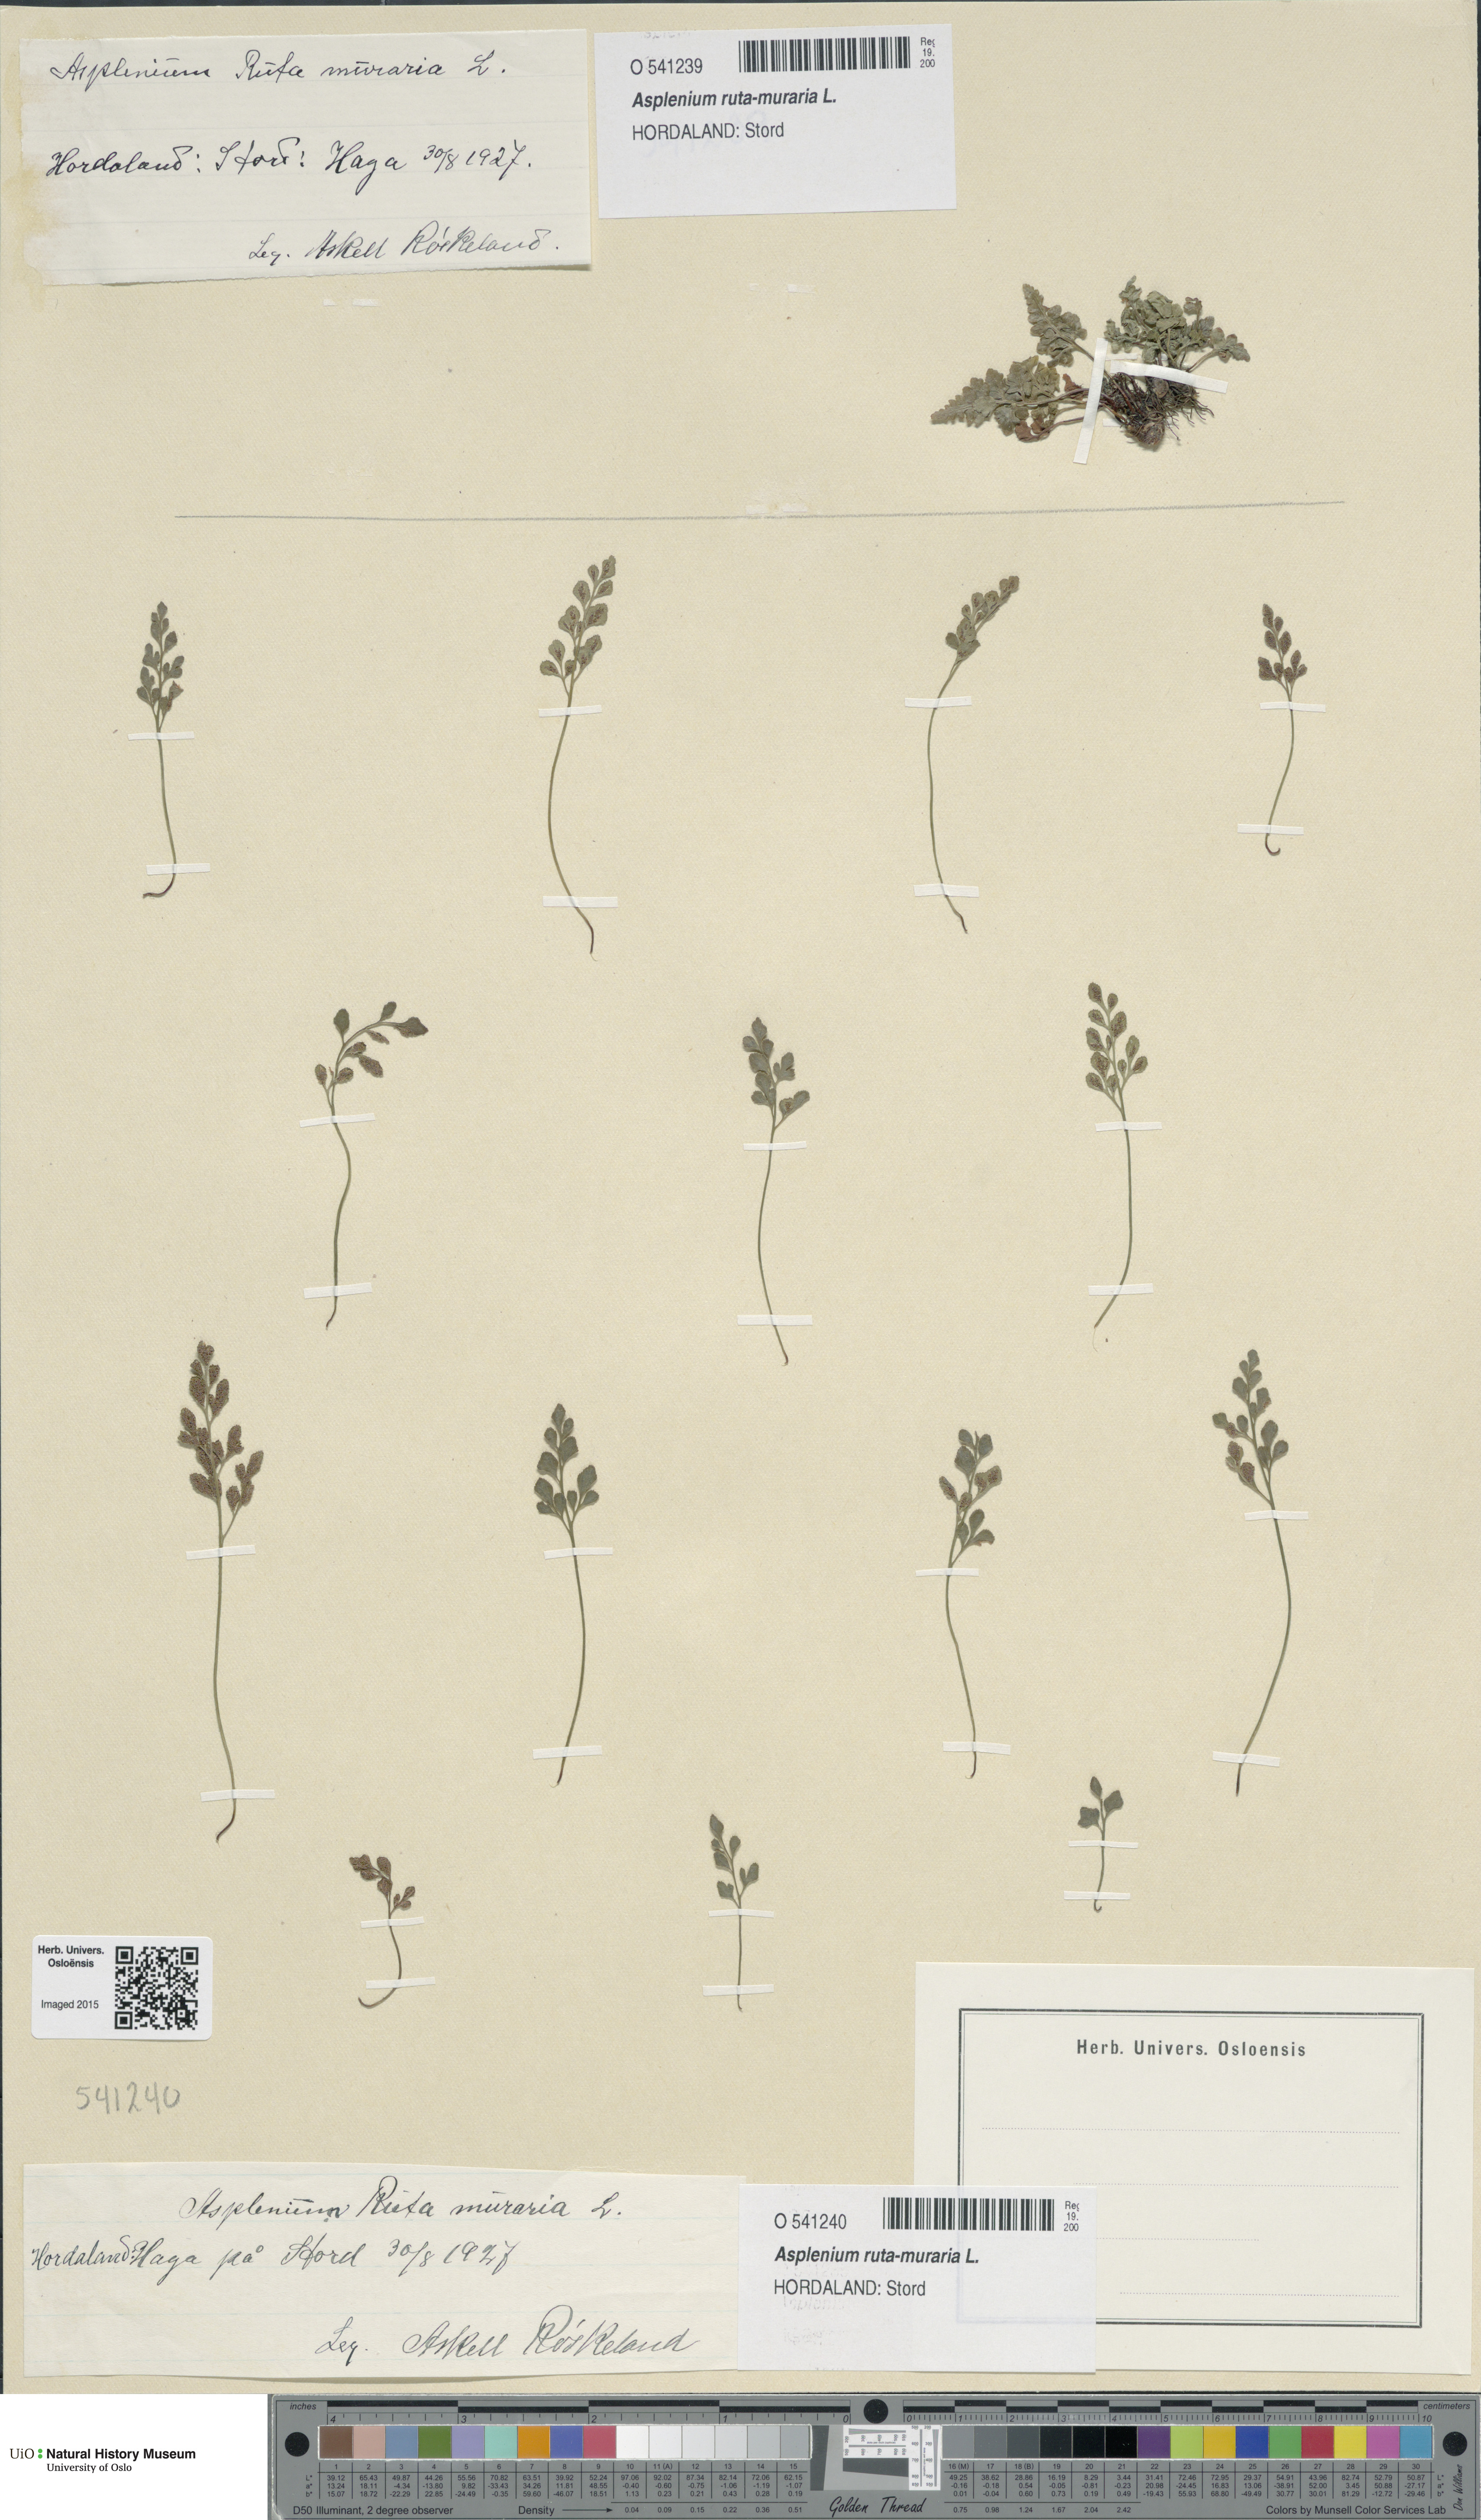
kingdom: Plantae
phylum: Tracheophyta
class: Polypodiopsida
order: Polypodiales
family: Aspleniaceae
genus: Asplenium
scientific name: Asplenium ruta-muraria
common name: Wall-rue
